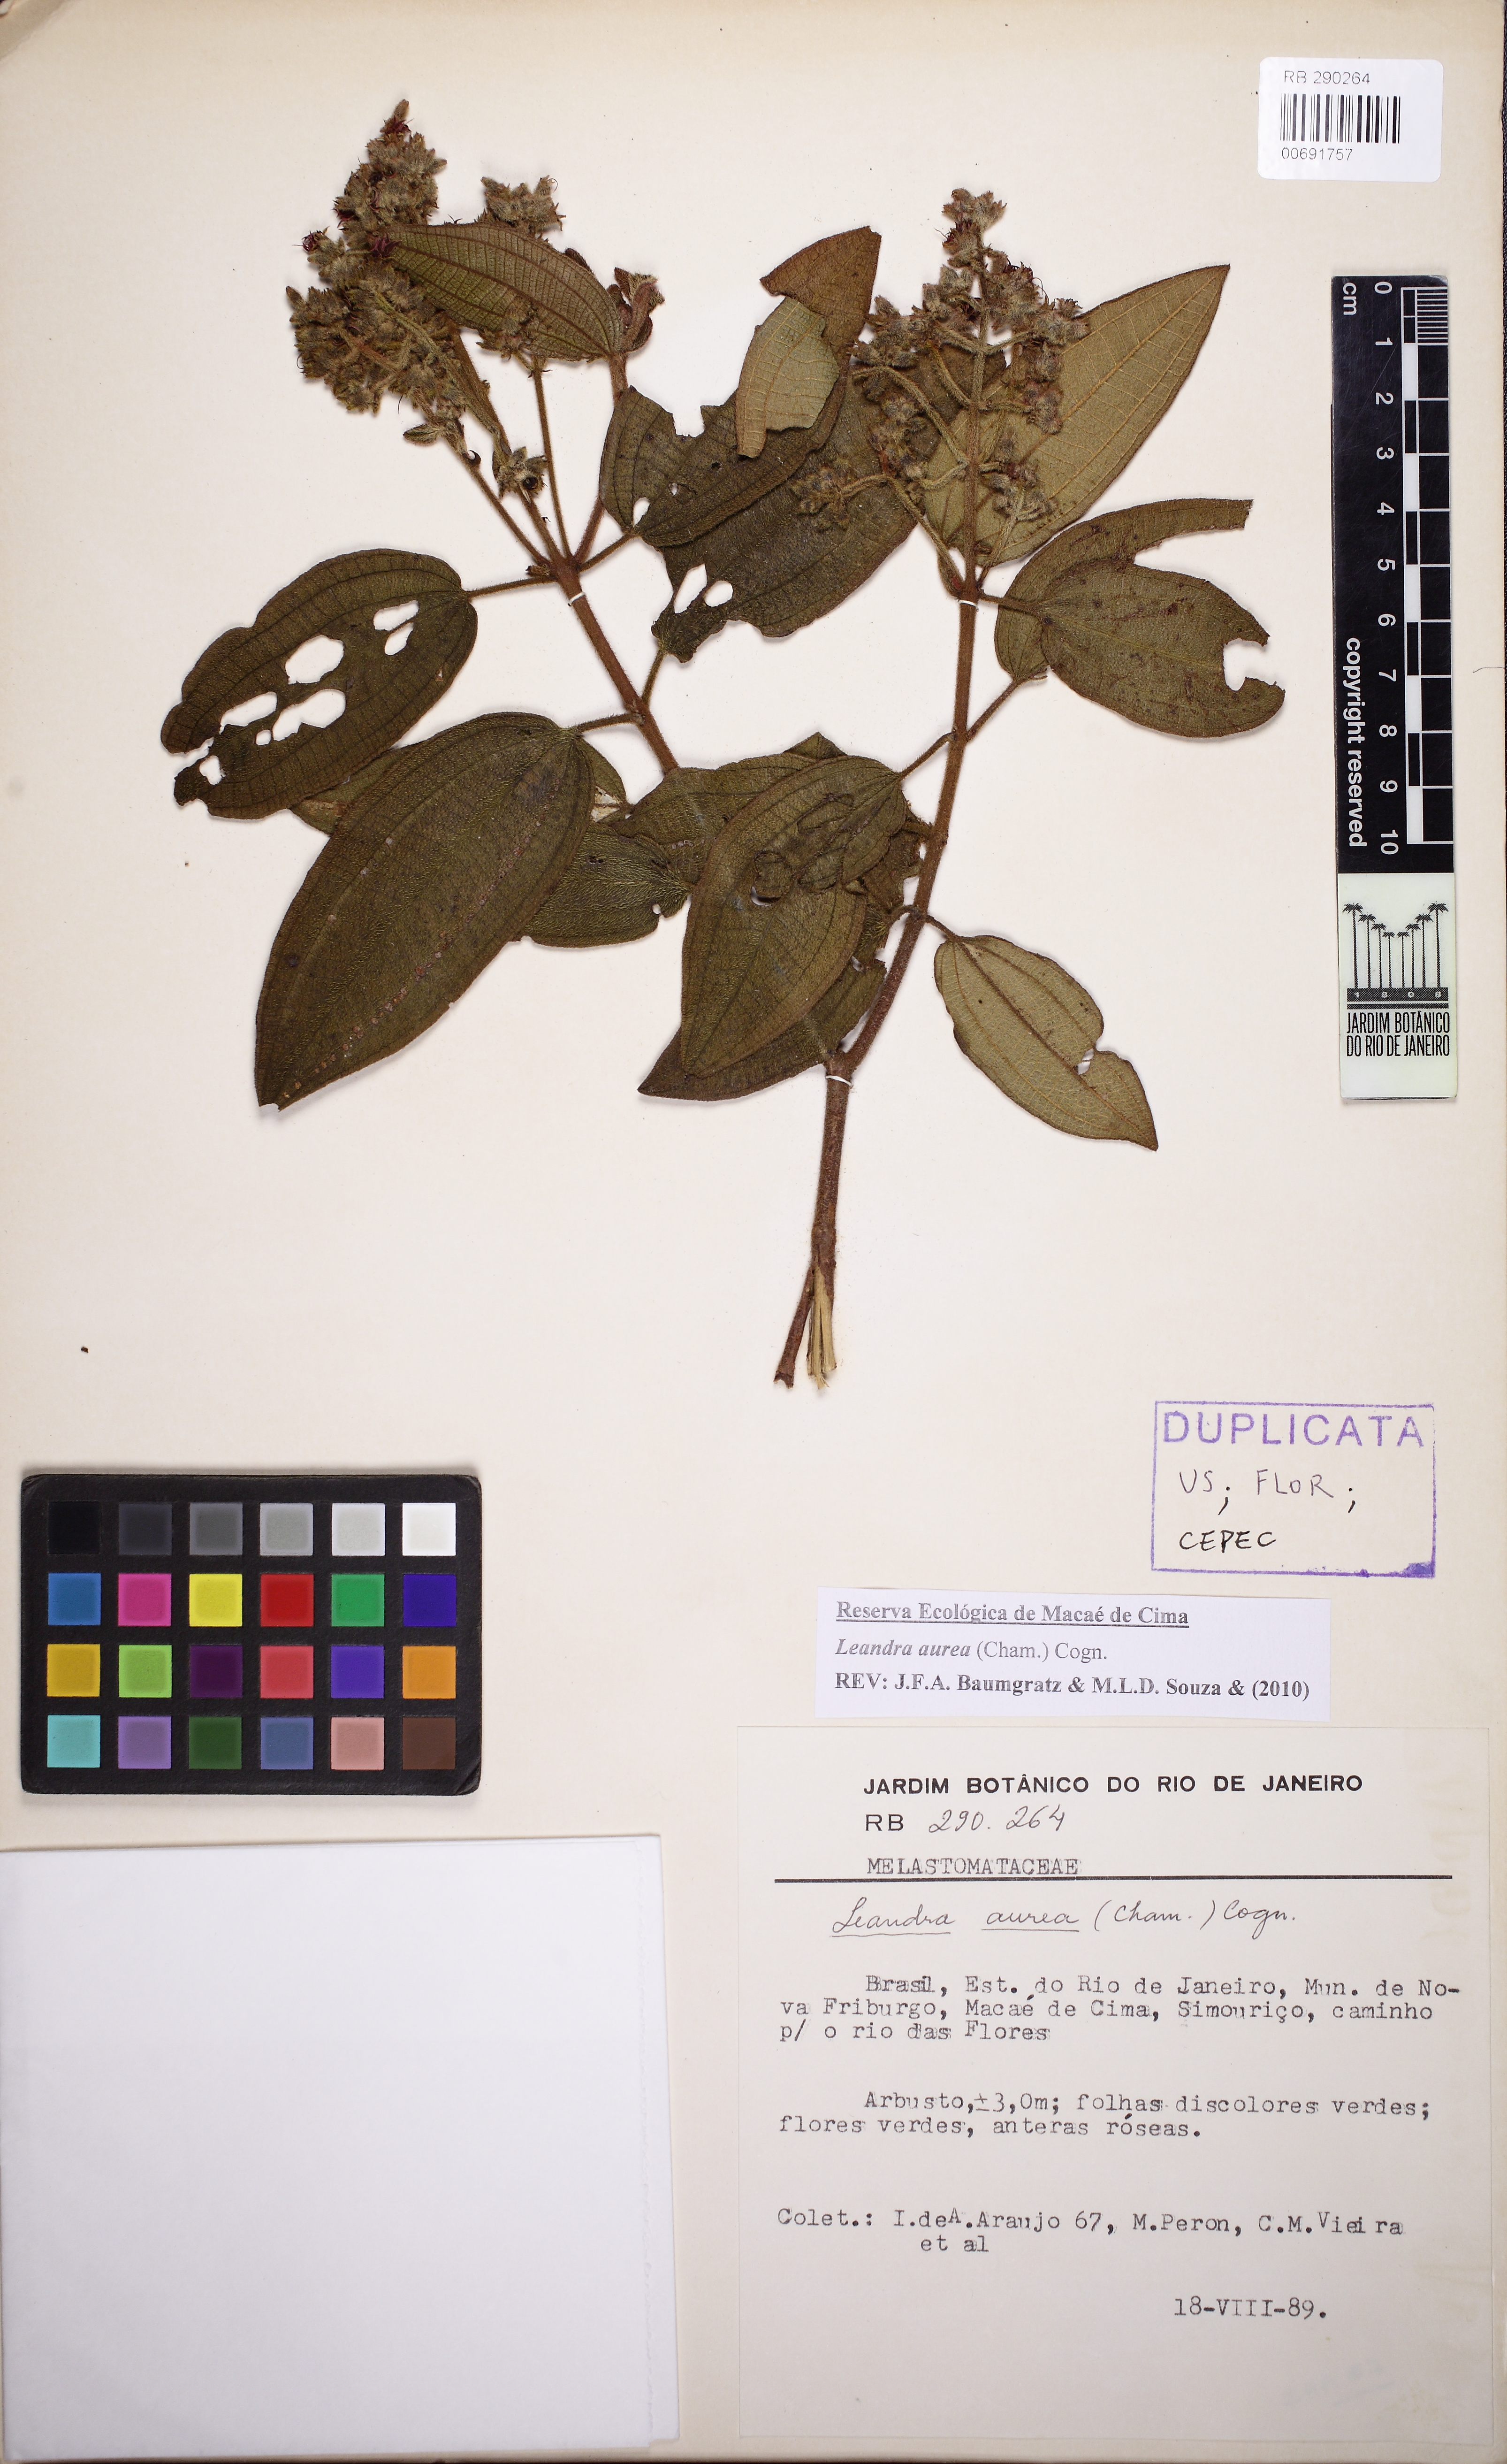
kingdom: Plantae
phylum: Tracheophyta
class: Magnoliopsida
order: Myrtales
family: Melastomataceae
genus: Miconia
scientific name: Miconia auricoma
